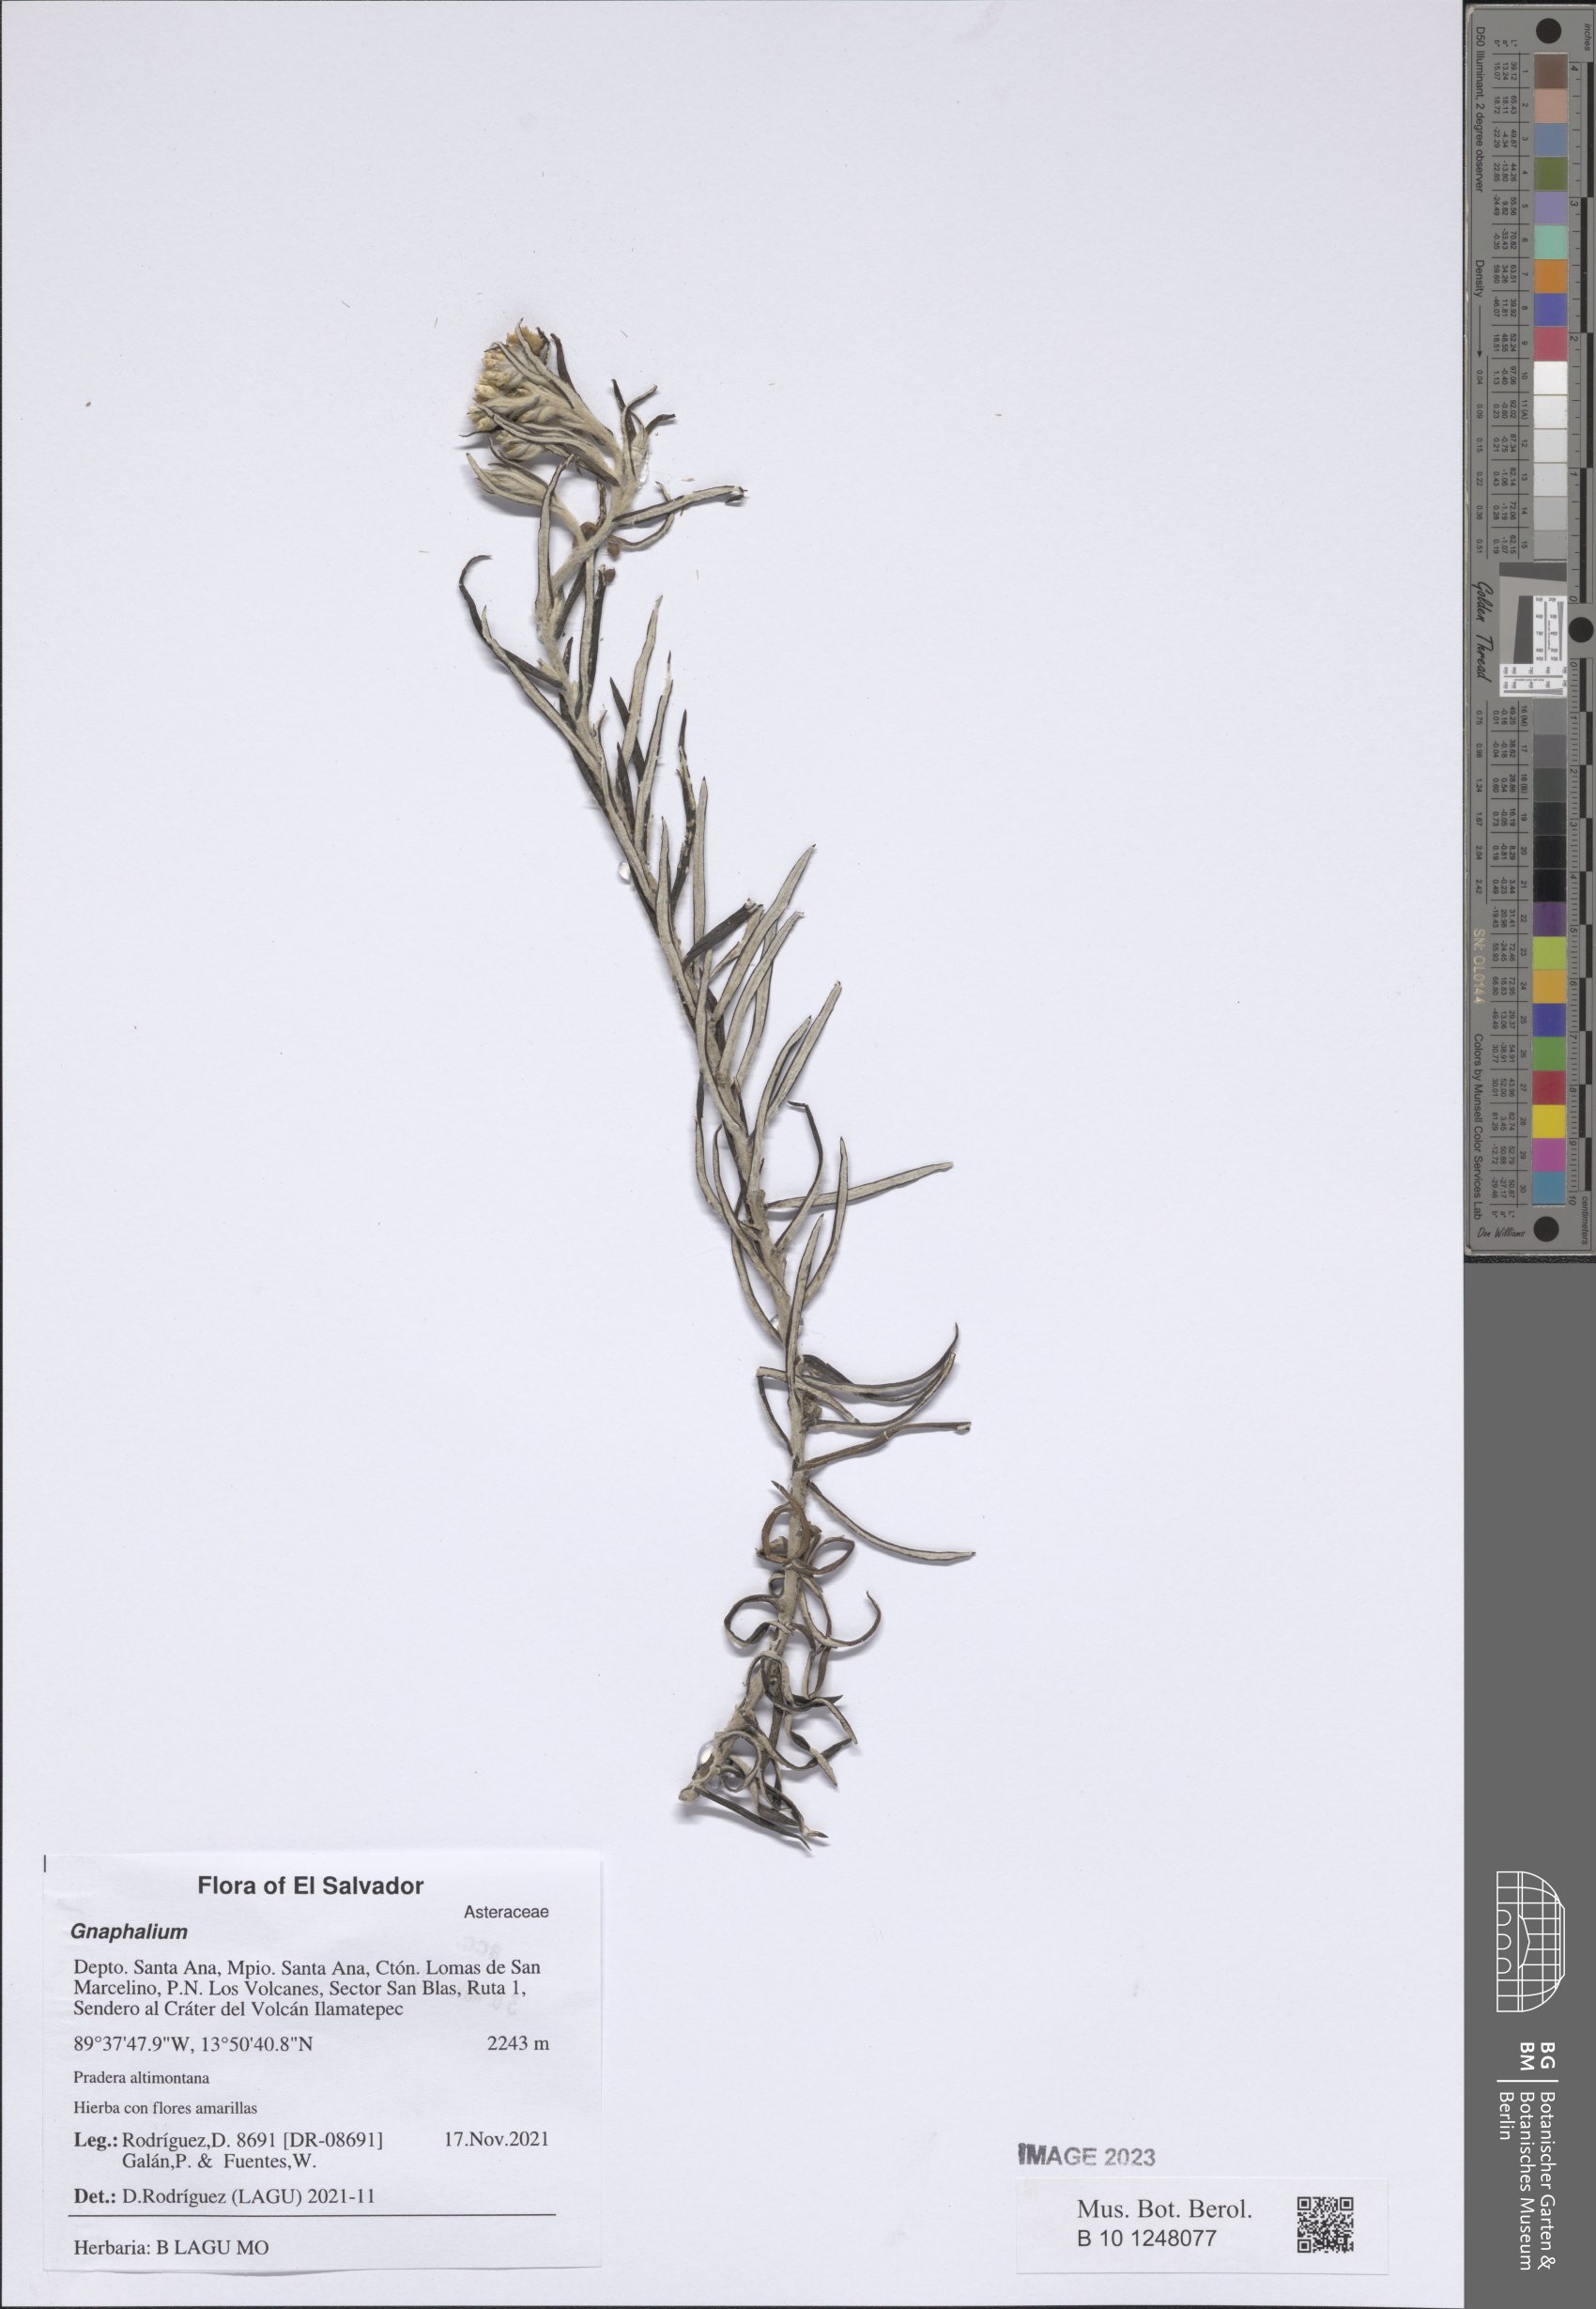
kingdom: Plantae
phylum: Tracheophyta
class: Magnoliopsida
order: Asterales
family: Asteraceae
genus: Gnaphalium
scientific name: Gnaphalium
